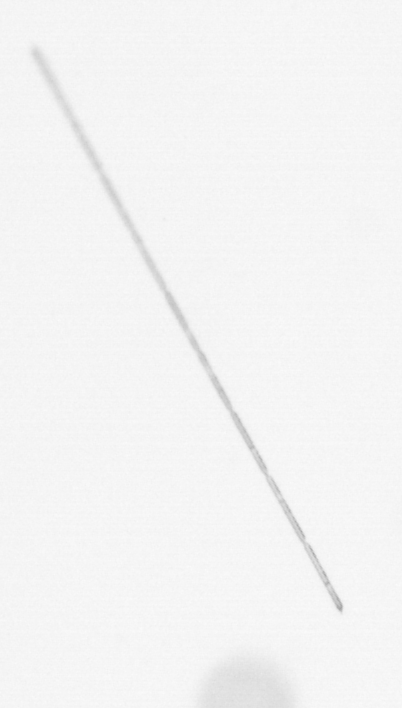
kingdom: Chromista
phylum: Ochrophyta
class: Bacillariophyceae
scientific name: Bacillariophyceae
